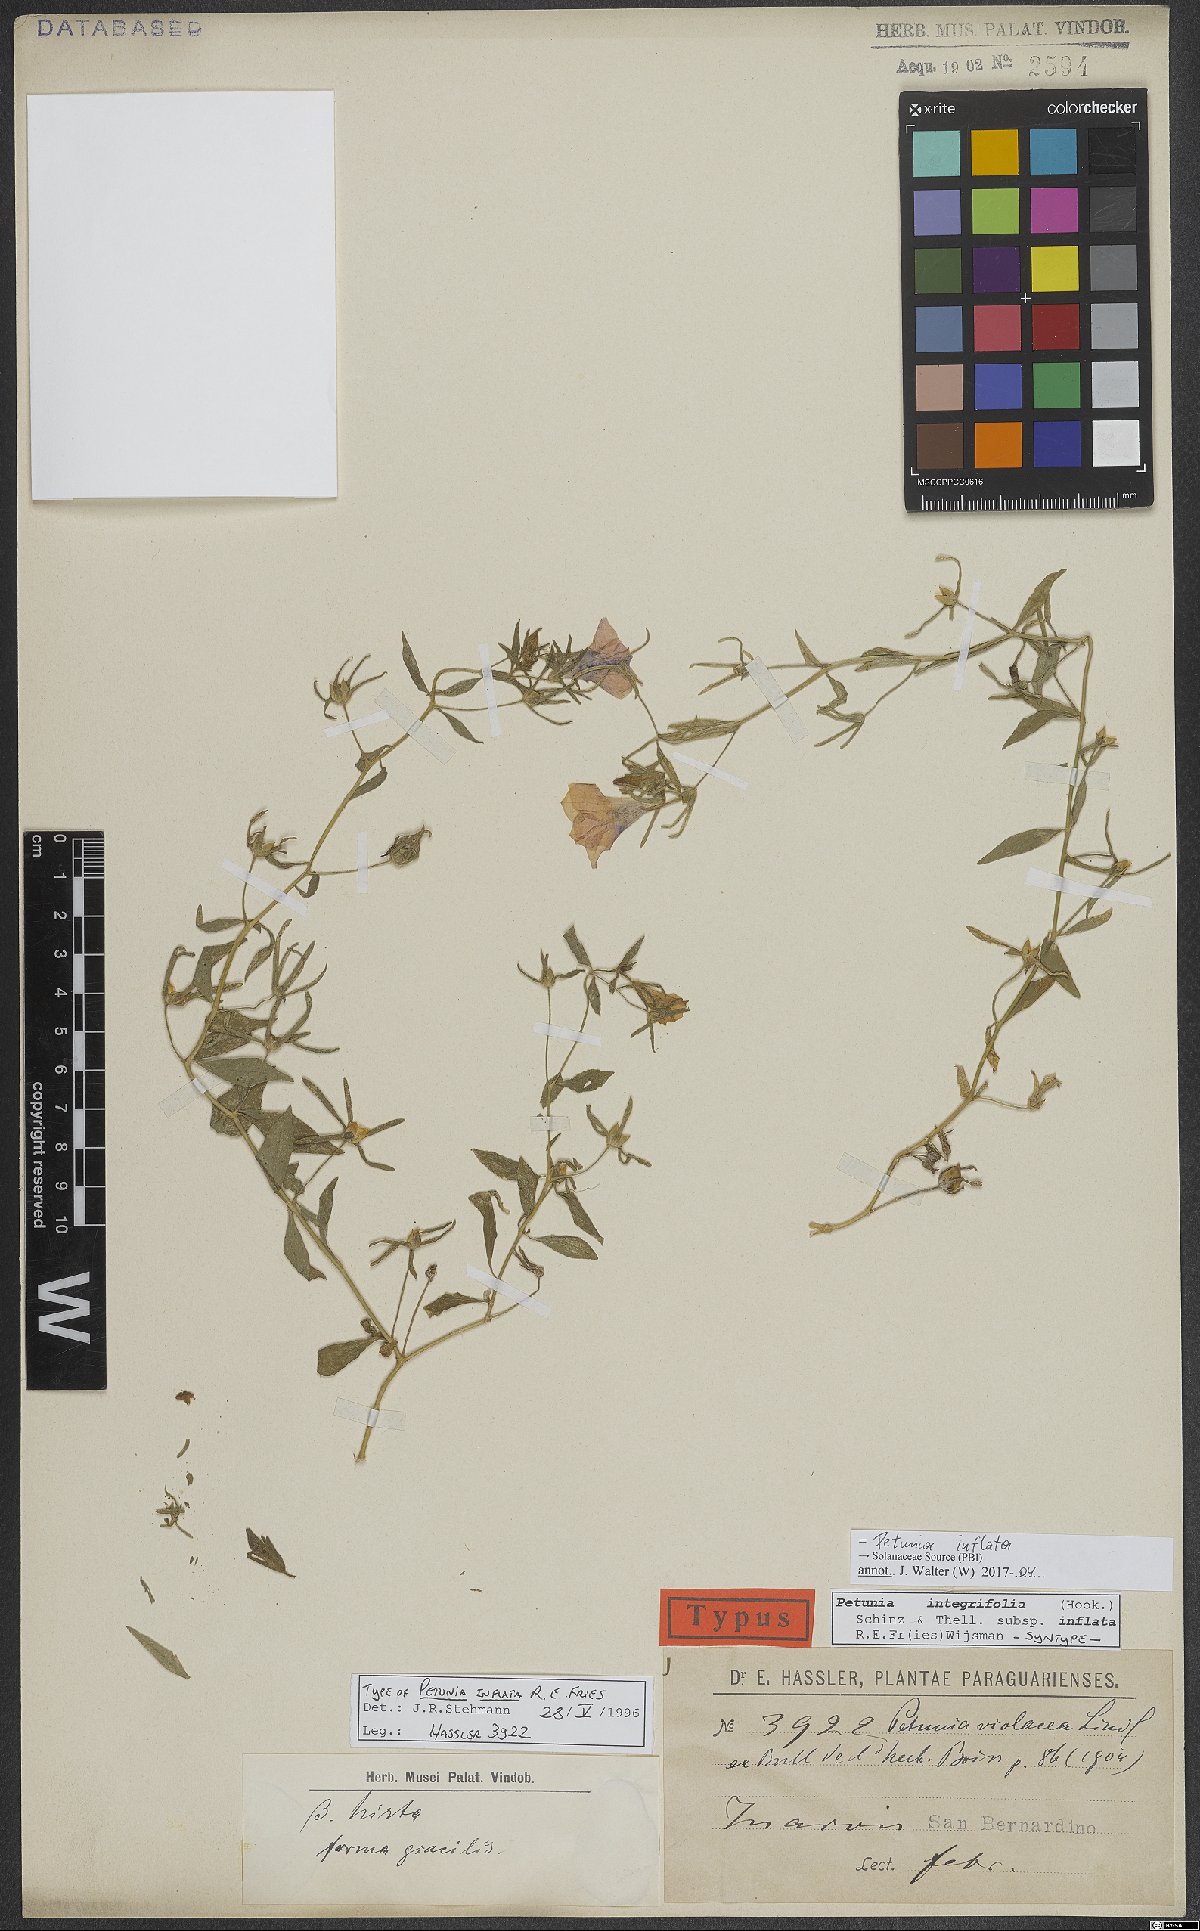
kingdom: Plantae
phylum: Tracheophyta
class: Magnoliopsida
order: Solanales
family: Solanaceae
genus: Petunia
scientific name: Petunia inflata
